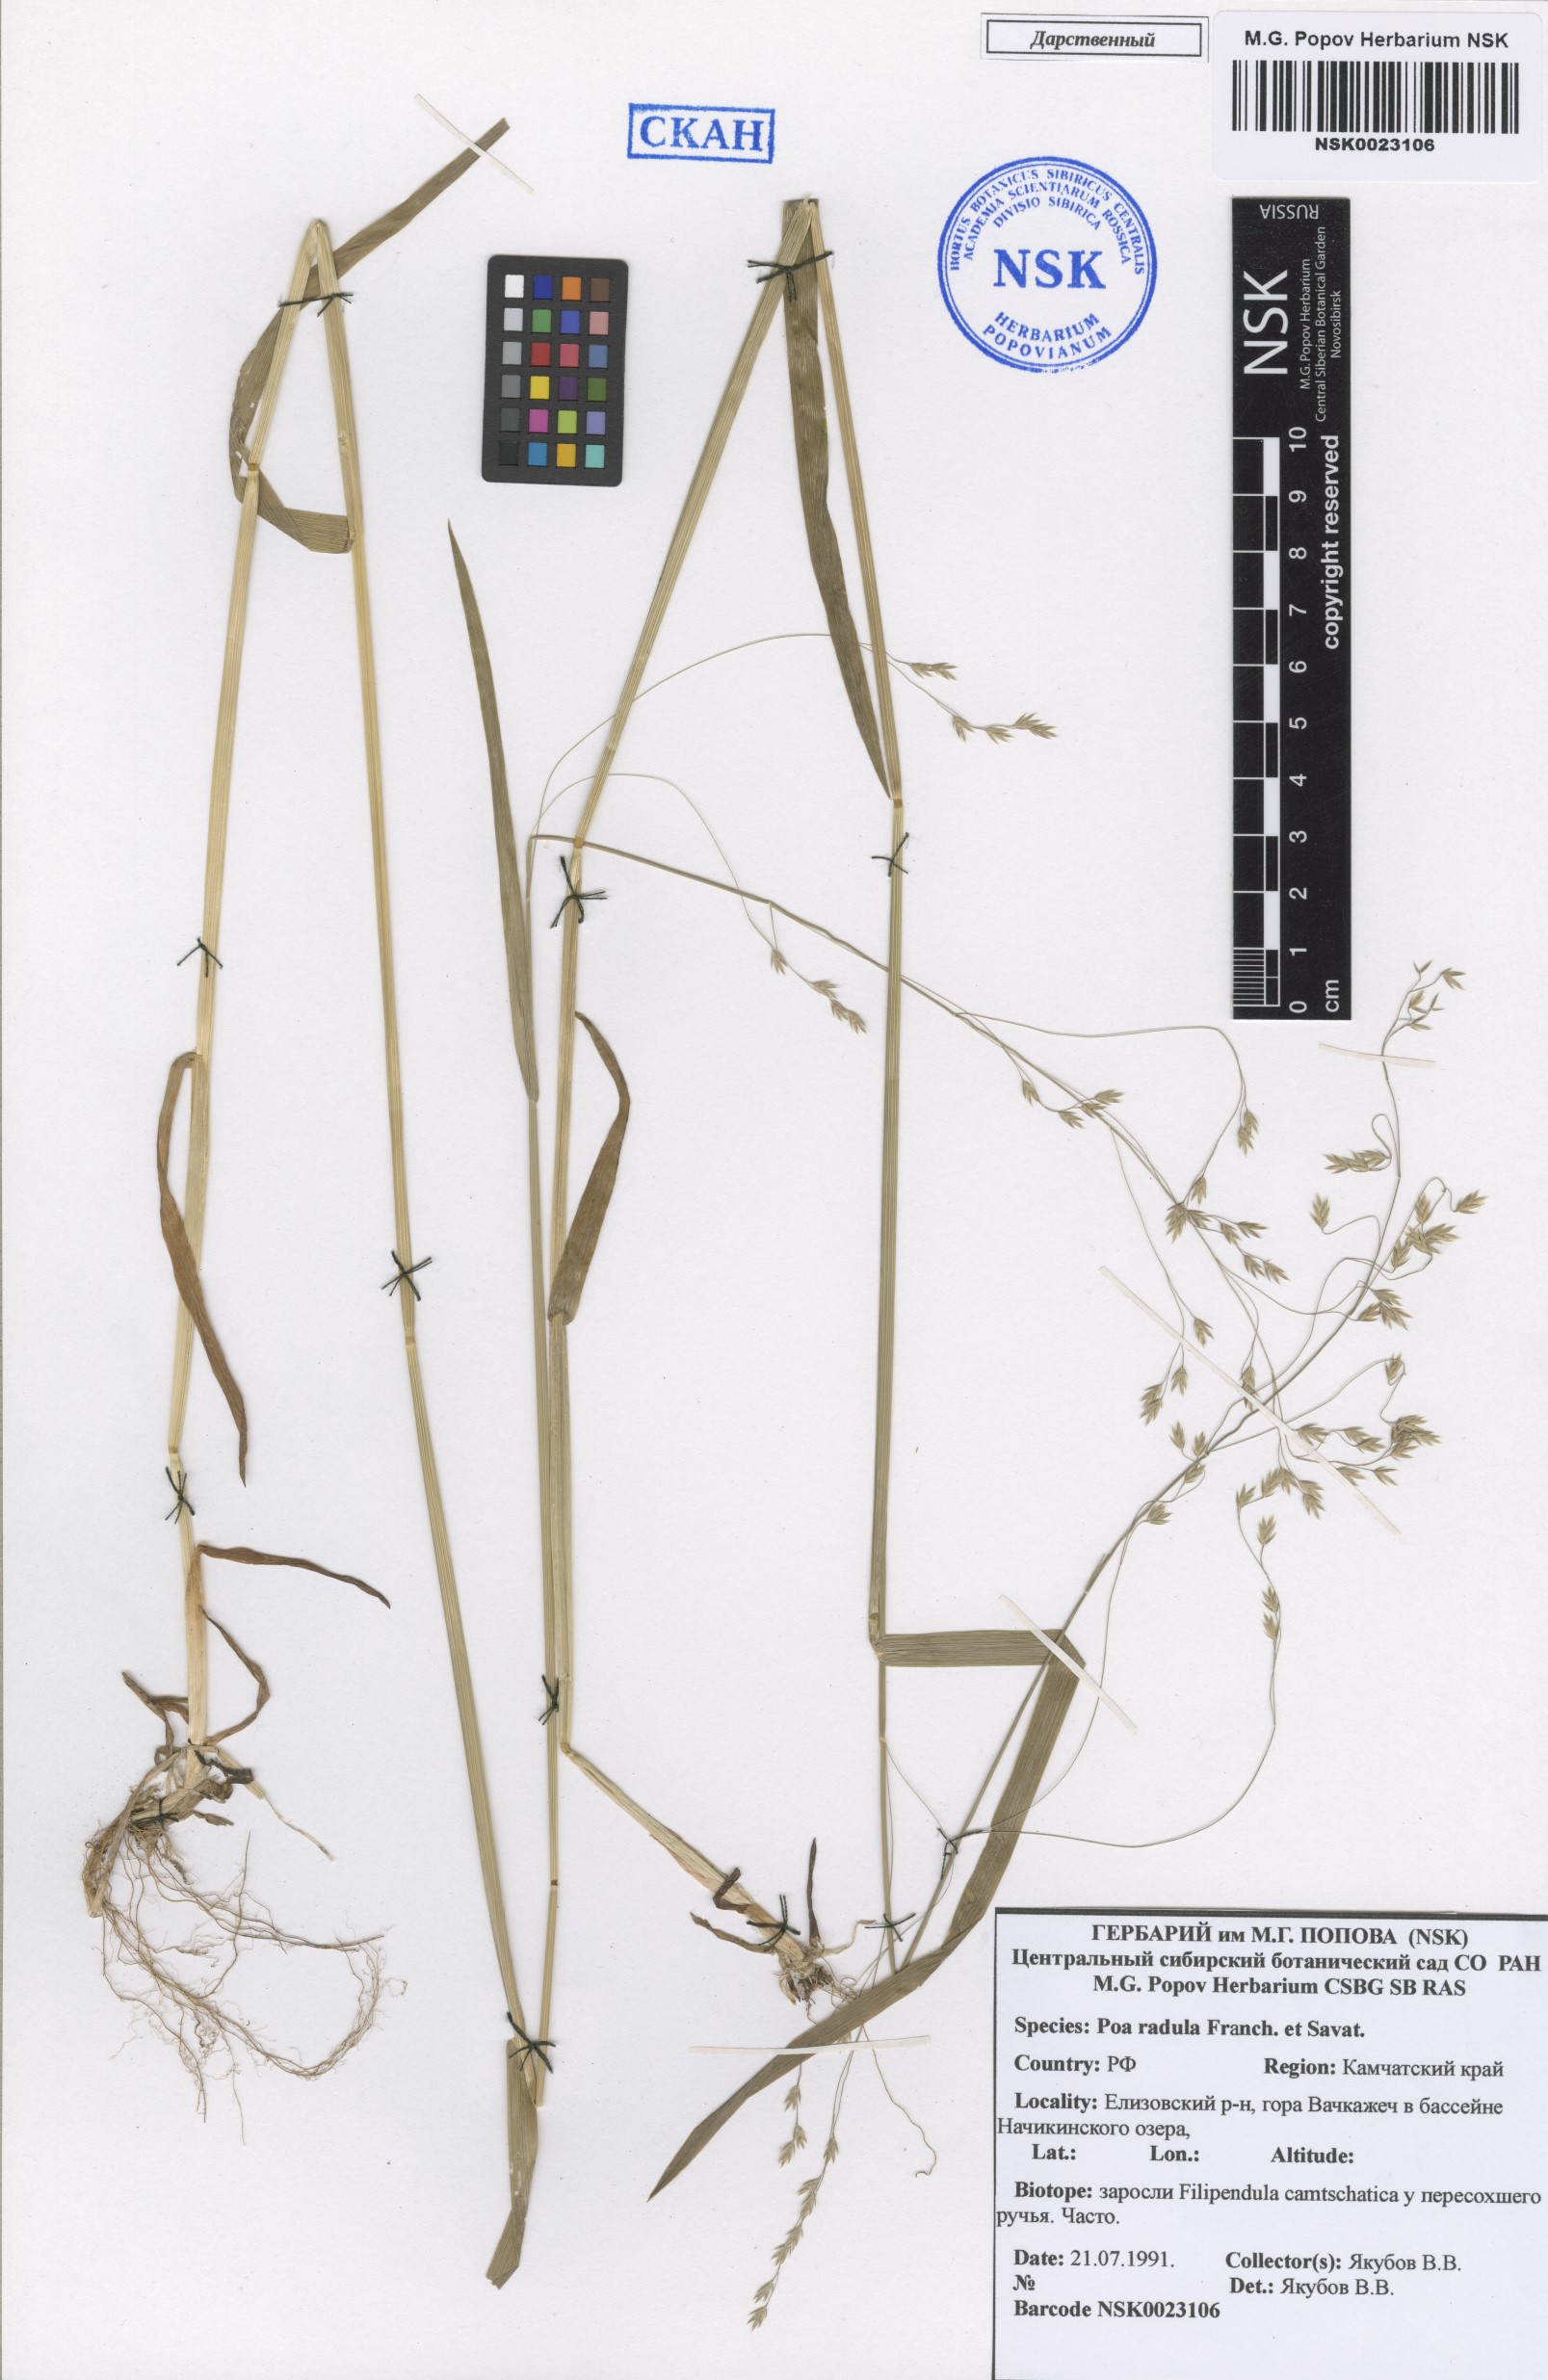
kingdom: Plantae
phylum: Tracheophyta
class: Liliopsida
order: Poales
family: Poaceae
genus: Poa
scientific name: Poa radula
